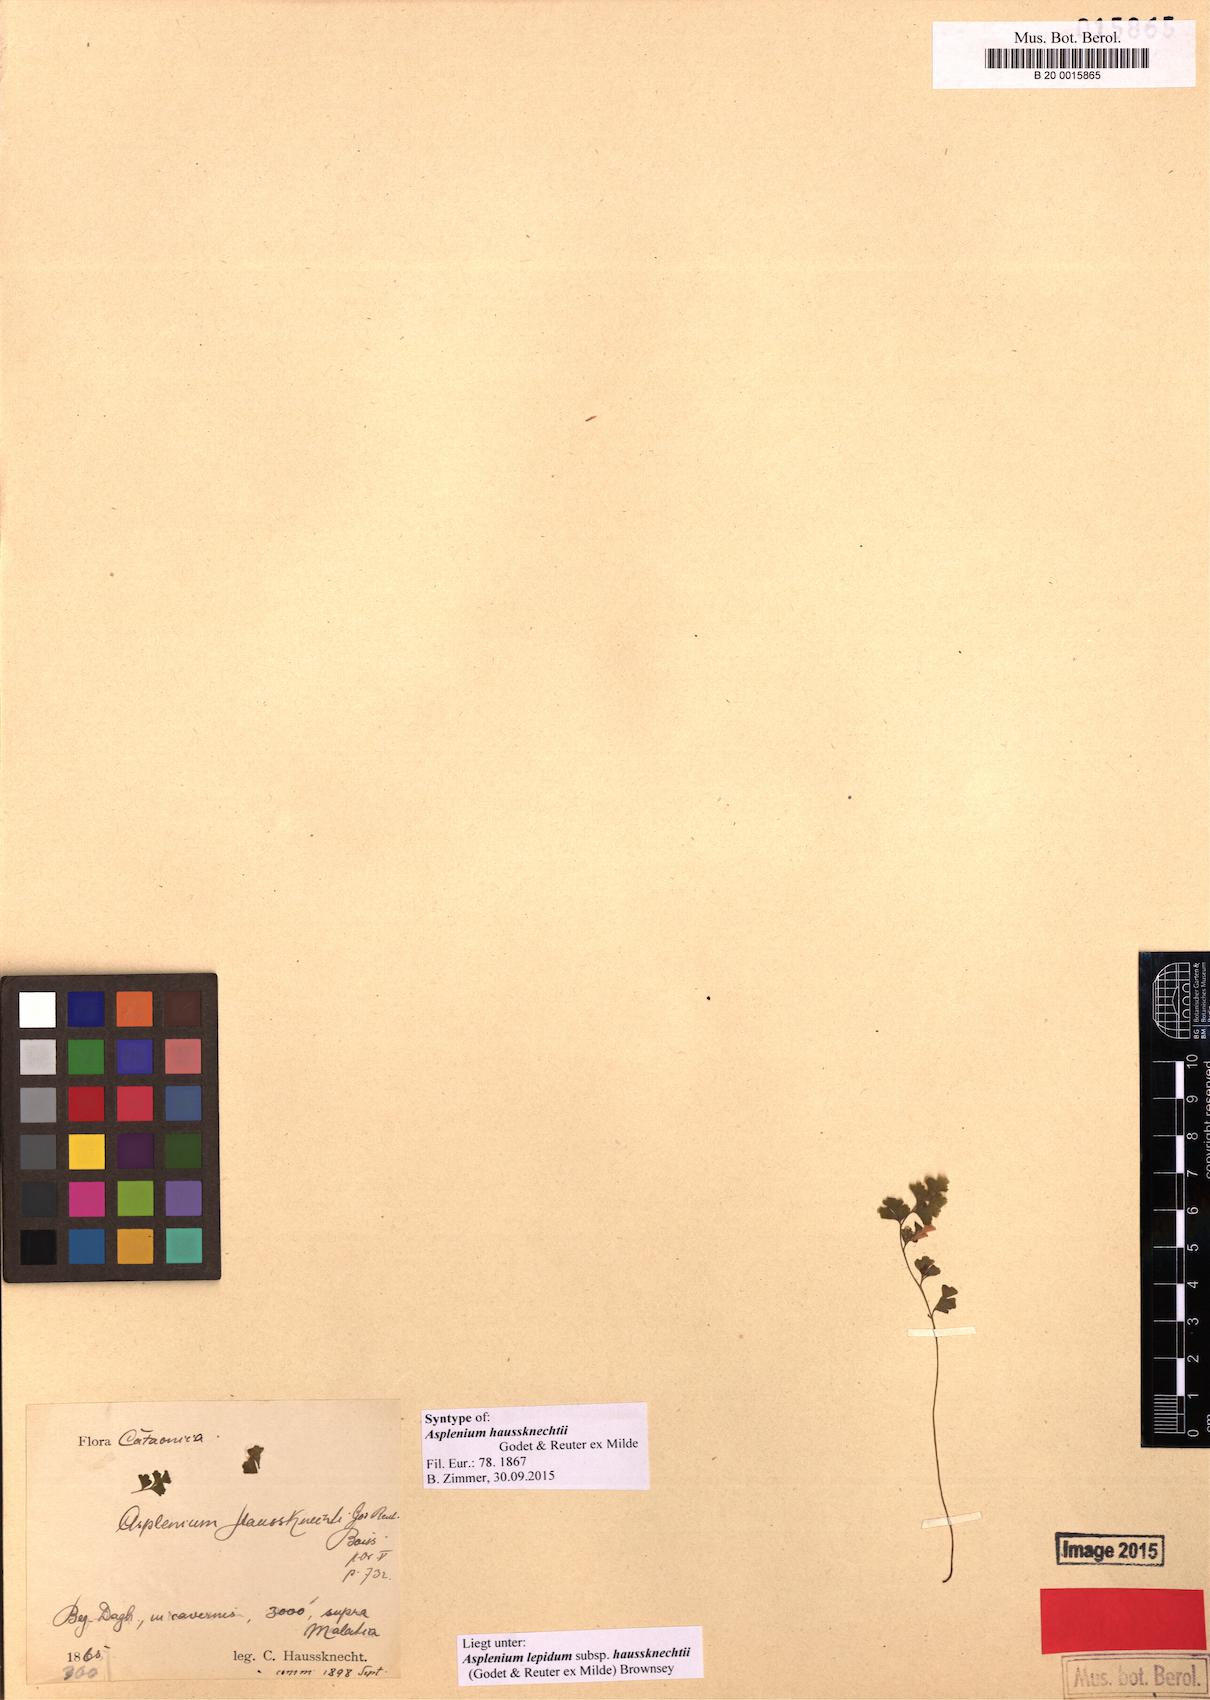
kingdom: Plantae
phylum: Tracheophyta
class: Polypodiopsida
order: Polypodiales
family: Aspleniaceae
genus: Asplenium
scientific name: Asplenium lepidum
